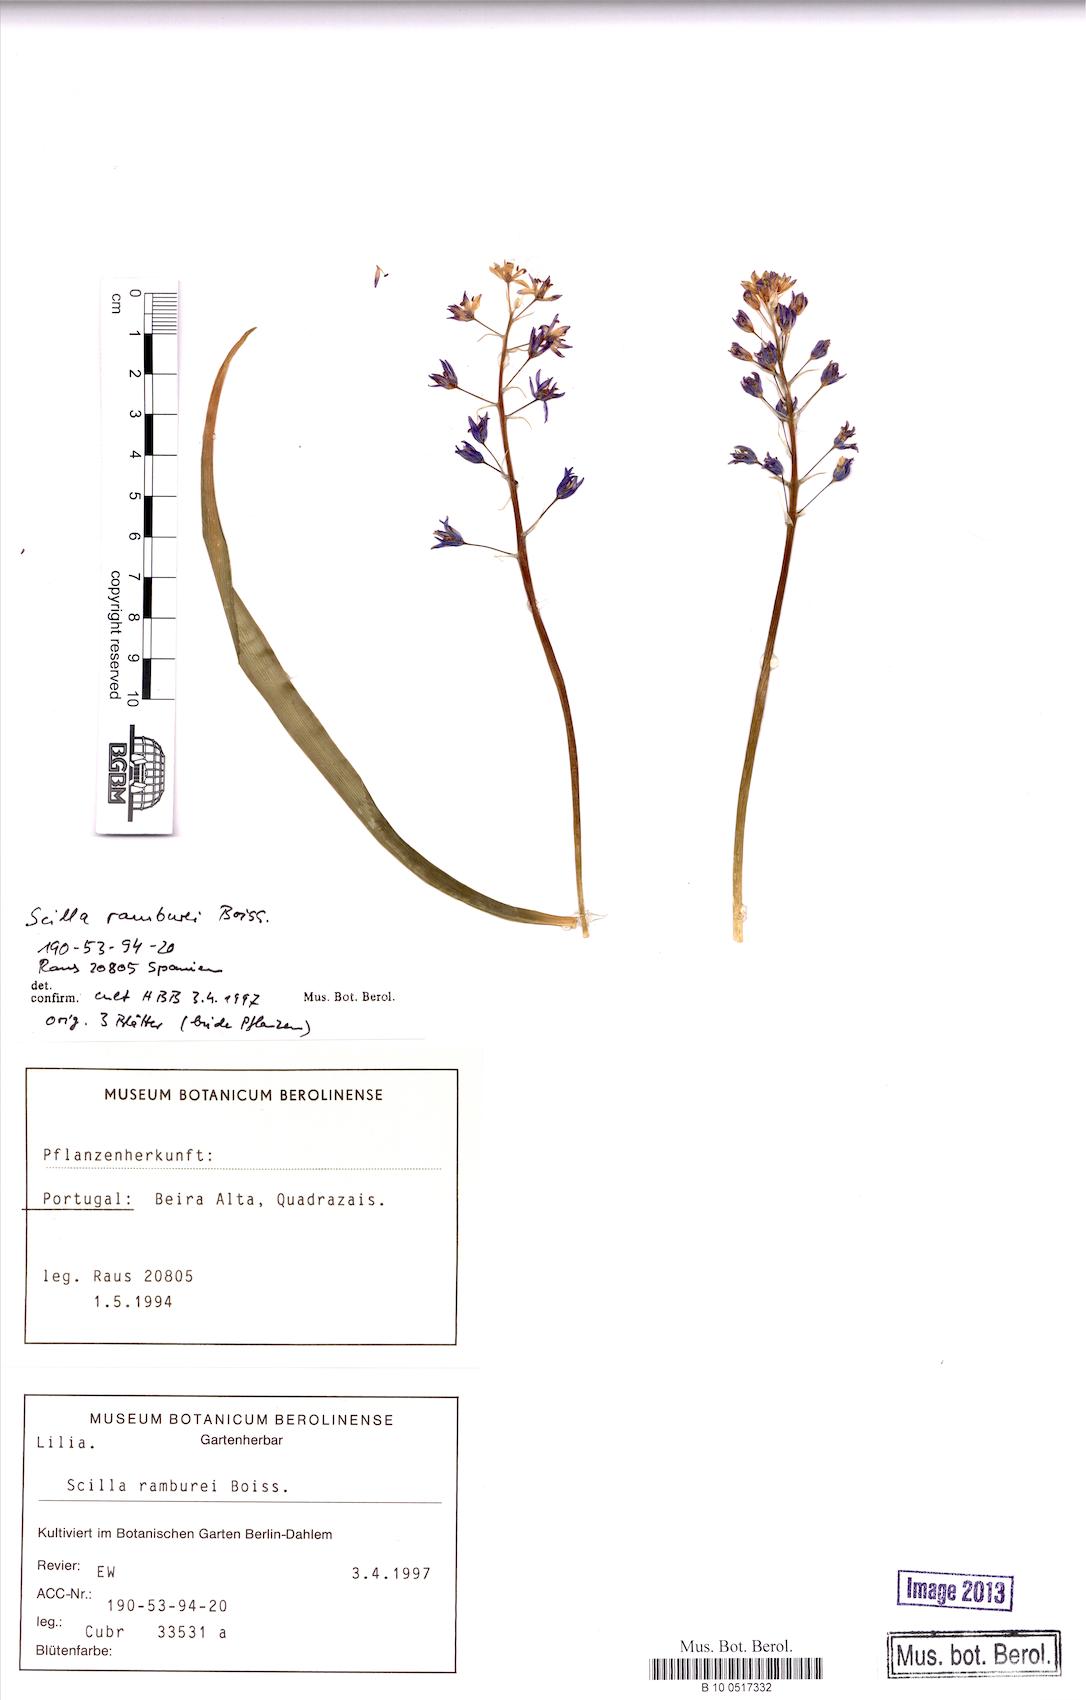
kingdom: Plantae
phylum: Tracheophyta
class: Liliopsida
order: Asparagales
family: Asparagaceae
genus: Scilla
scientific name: Scilla verna
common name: Spring squill
